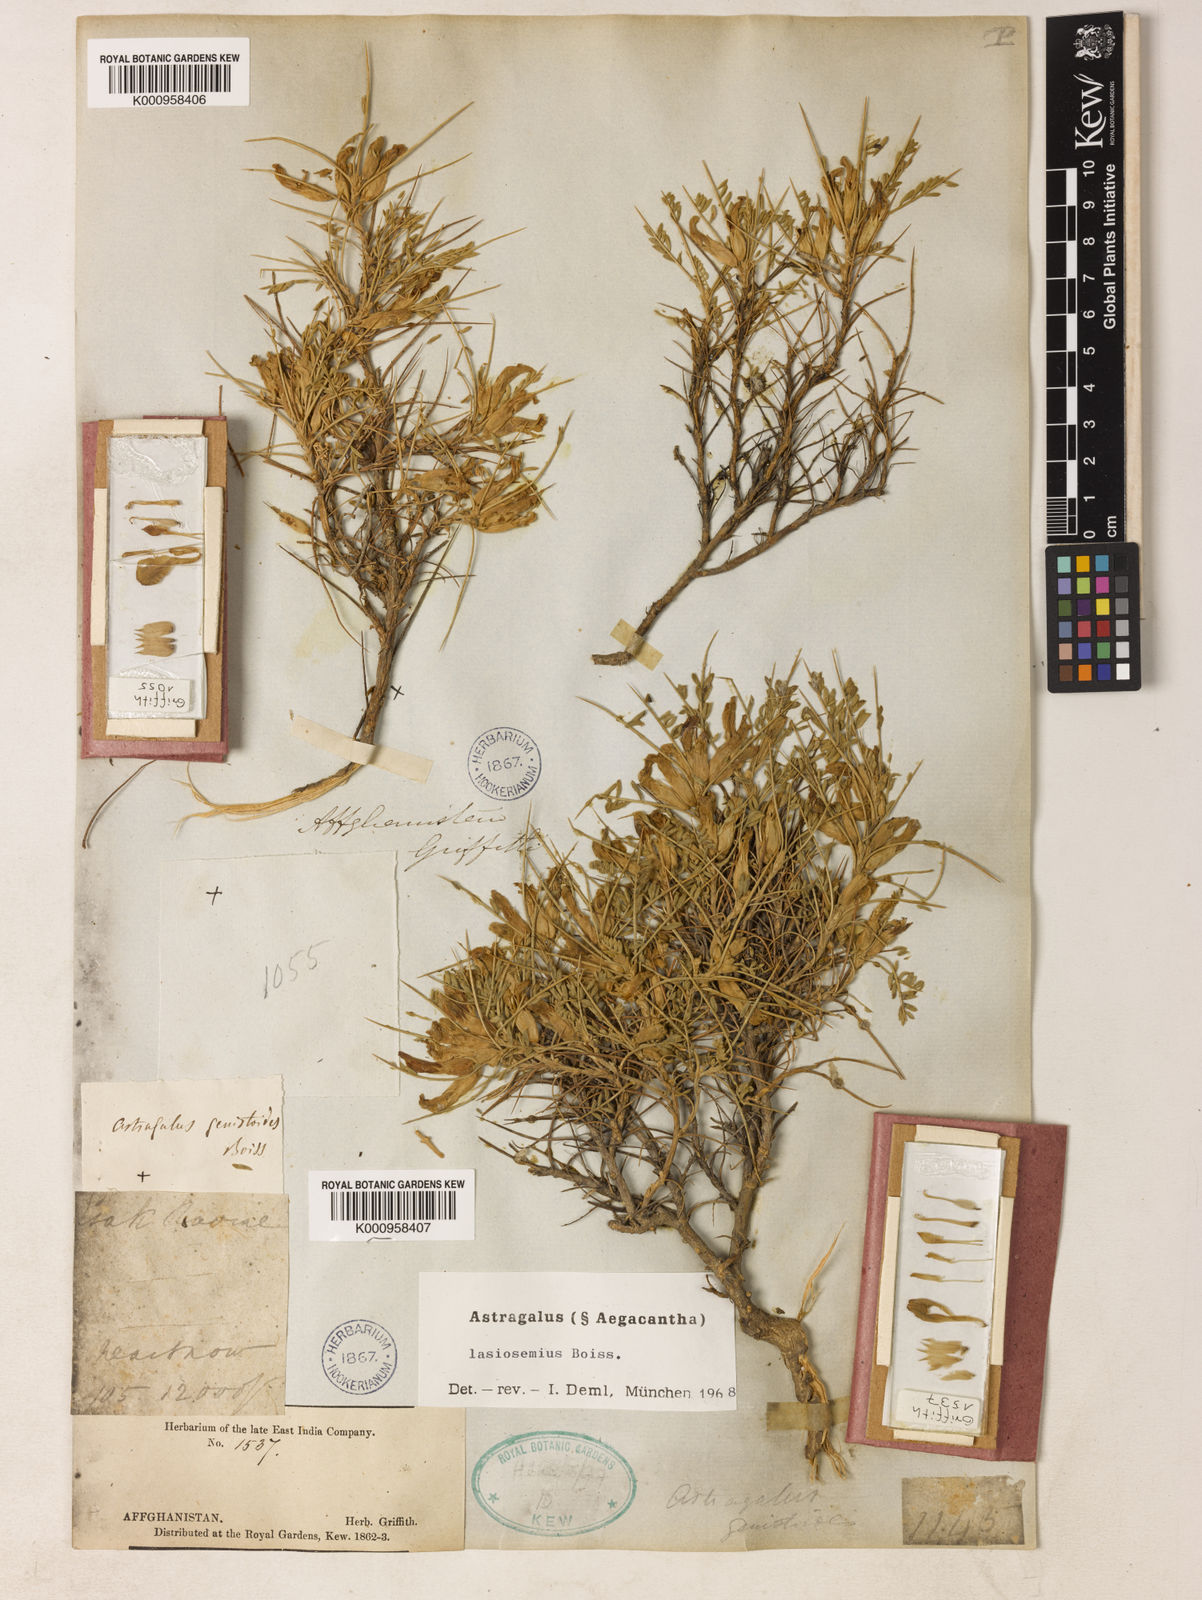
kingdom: Plantae
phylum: Tracheophyta
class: Magnoliopsida
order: Fabales
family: Fabaceae
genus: Astragalus
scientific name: Astragalus
